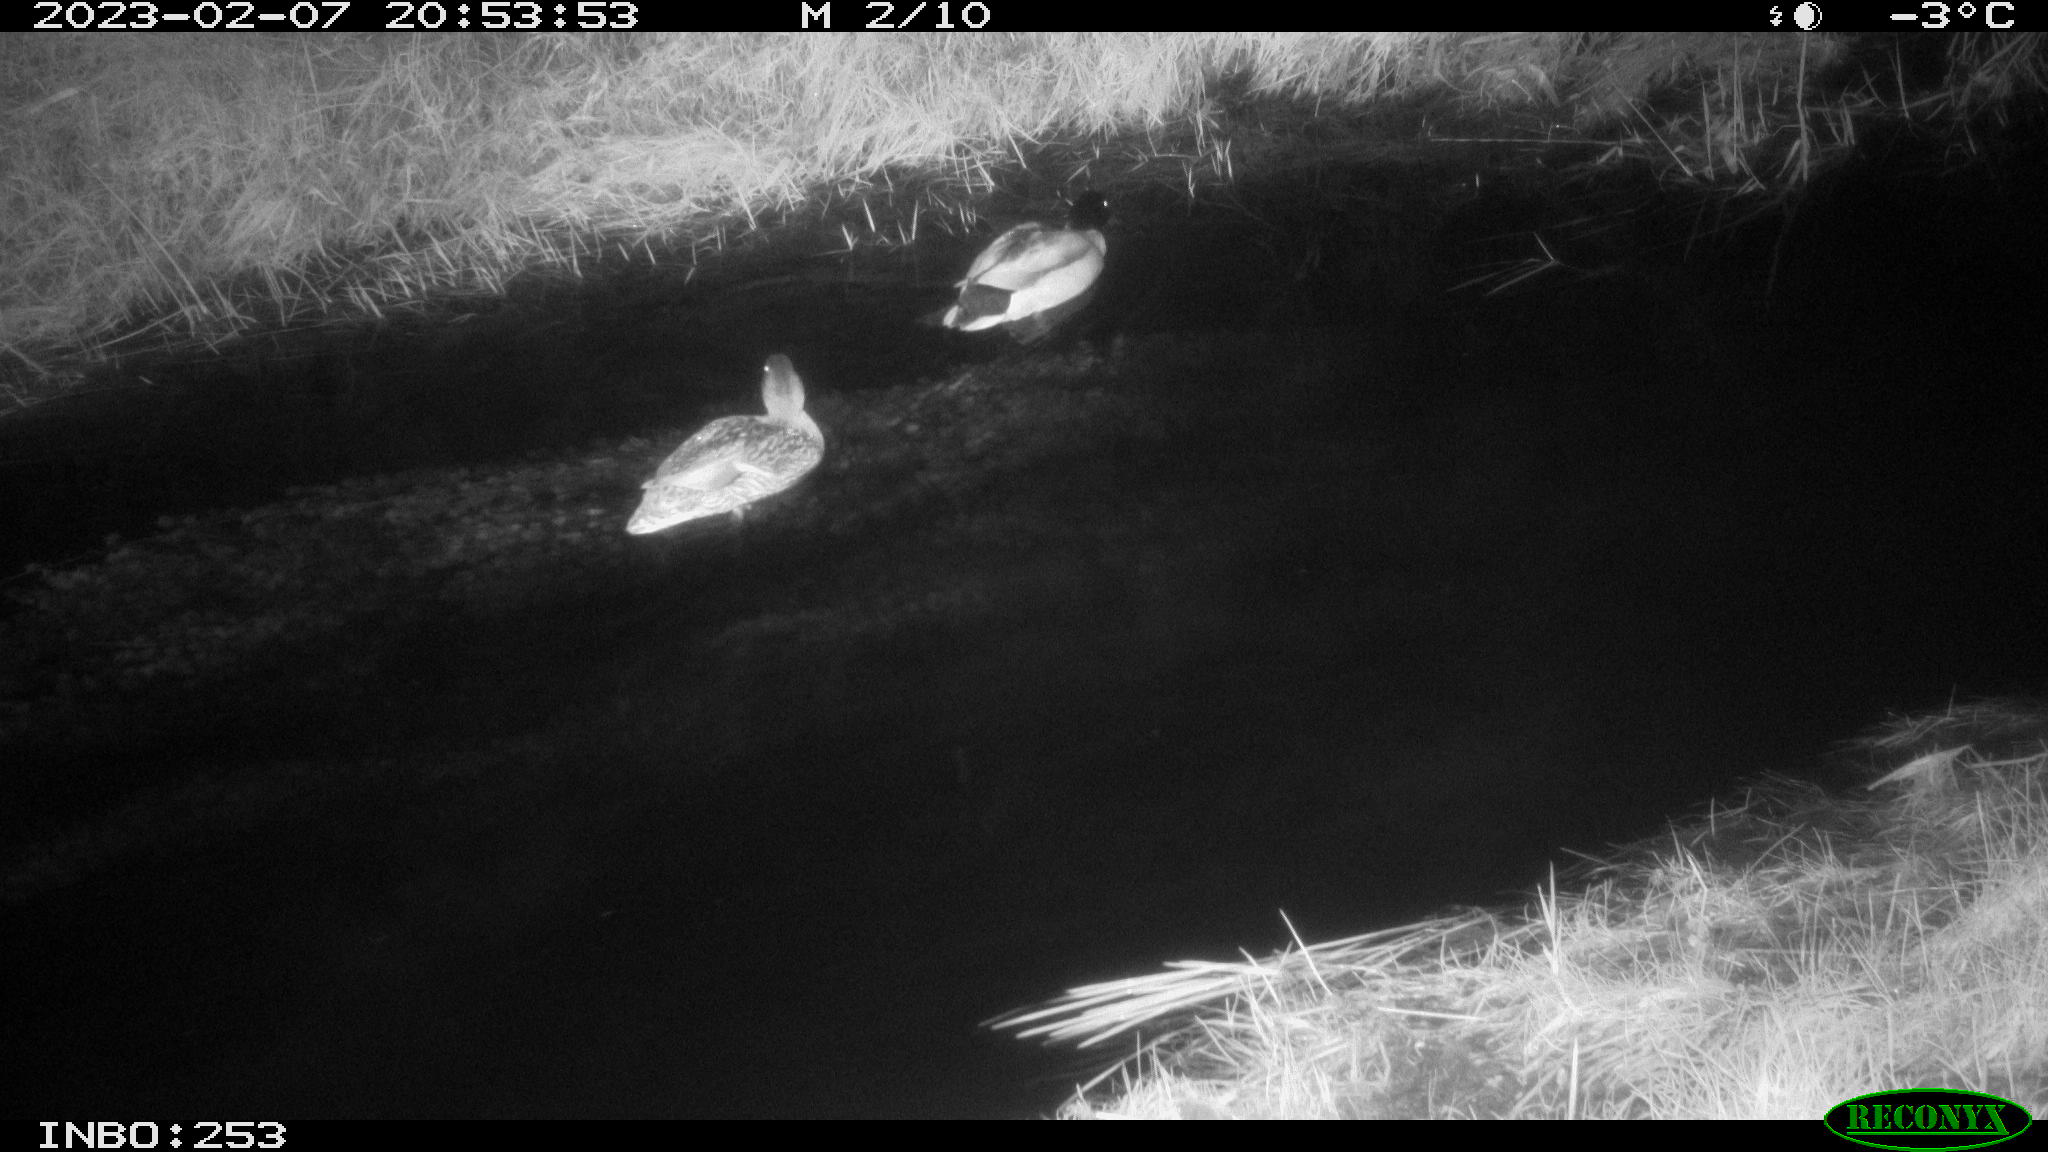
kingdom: Animalia
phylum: Chordata
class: Aves
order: Anseriformes
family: Anatidae
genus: Anas
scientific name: Anas
